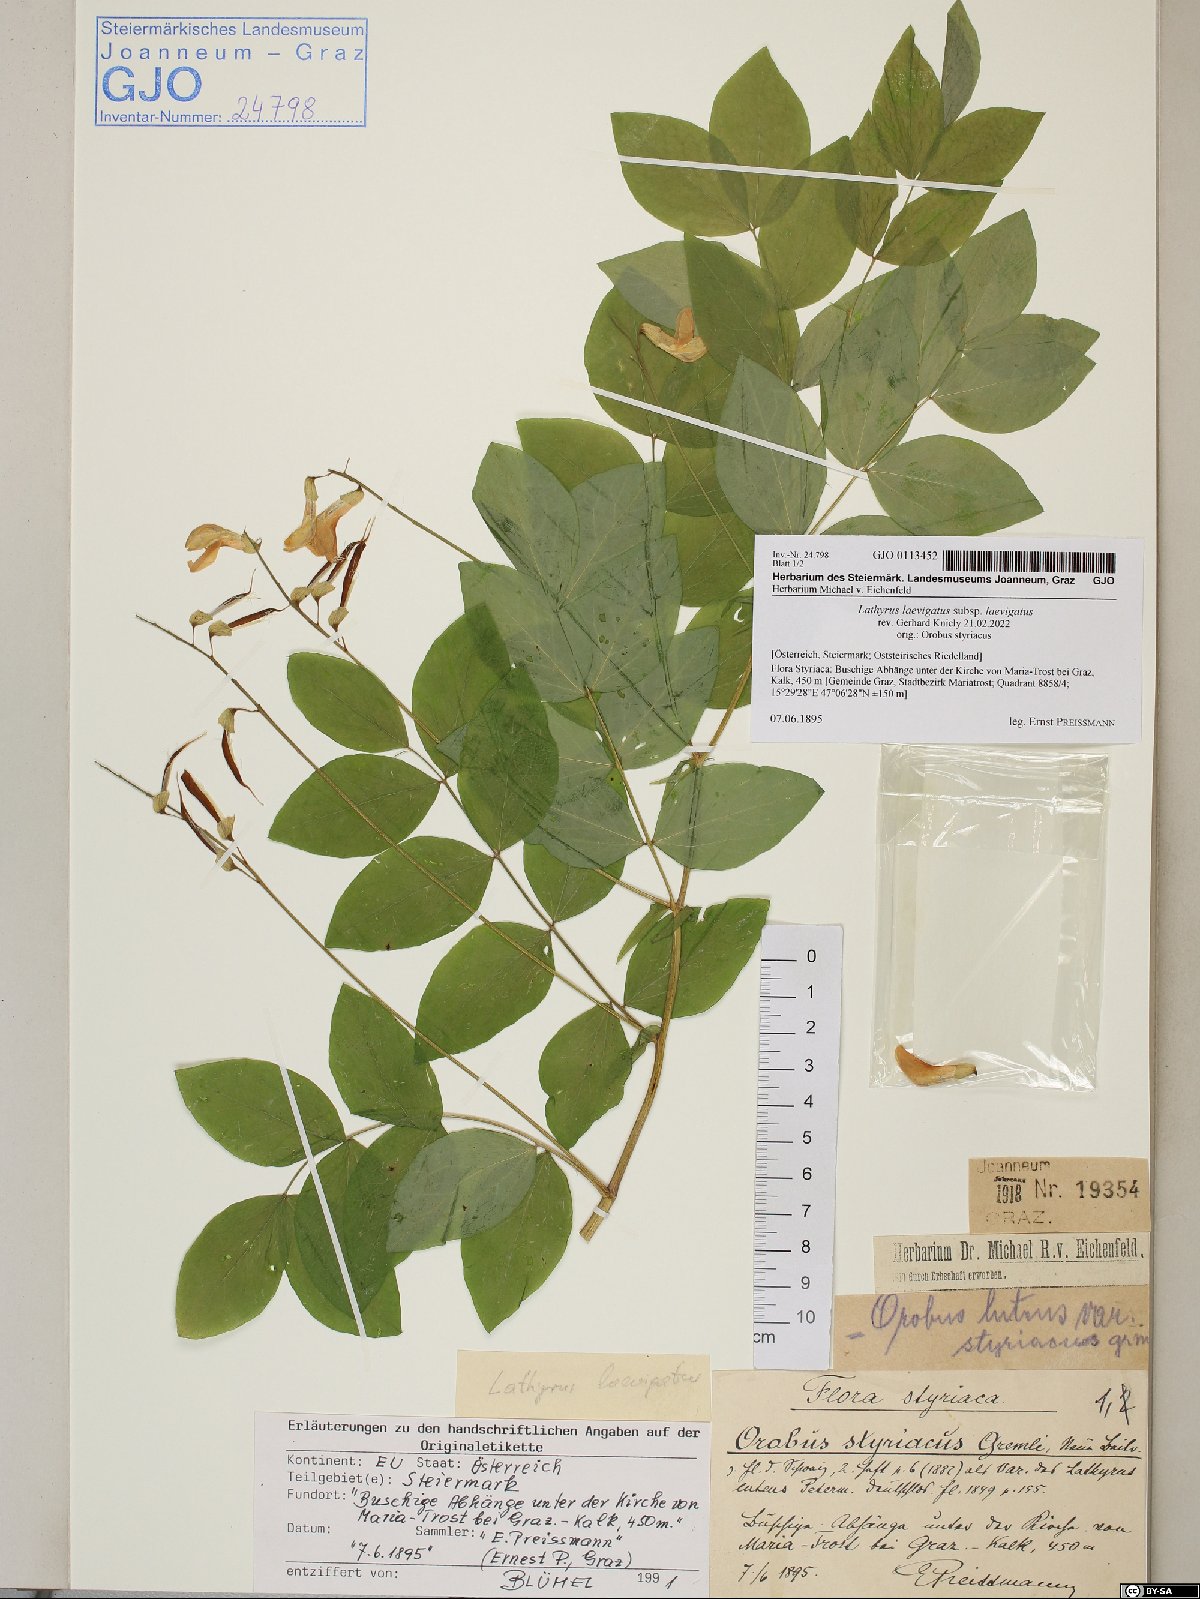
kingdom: Plantae
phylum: Tracheophyta
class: Magnoliopsida
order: Fabales
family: Fabaceae
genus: Lathyrus
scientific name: Lathyrus laevigatus
